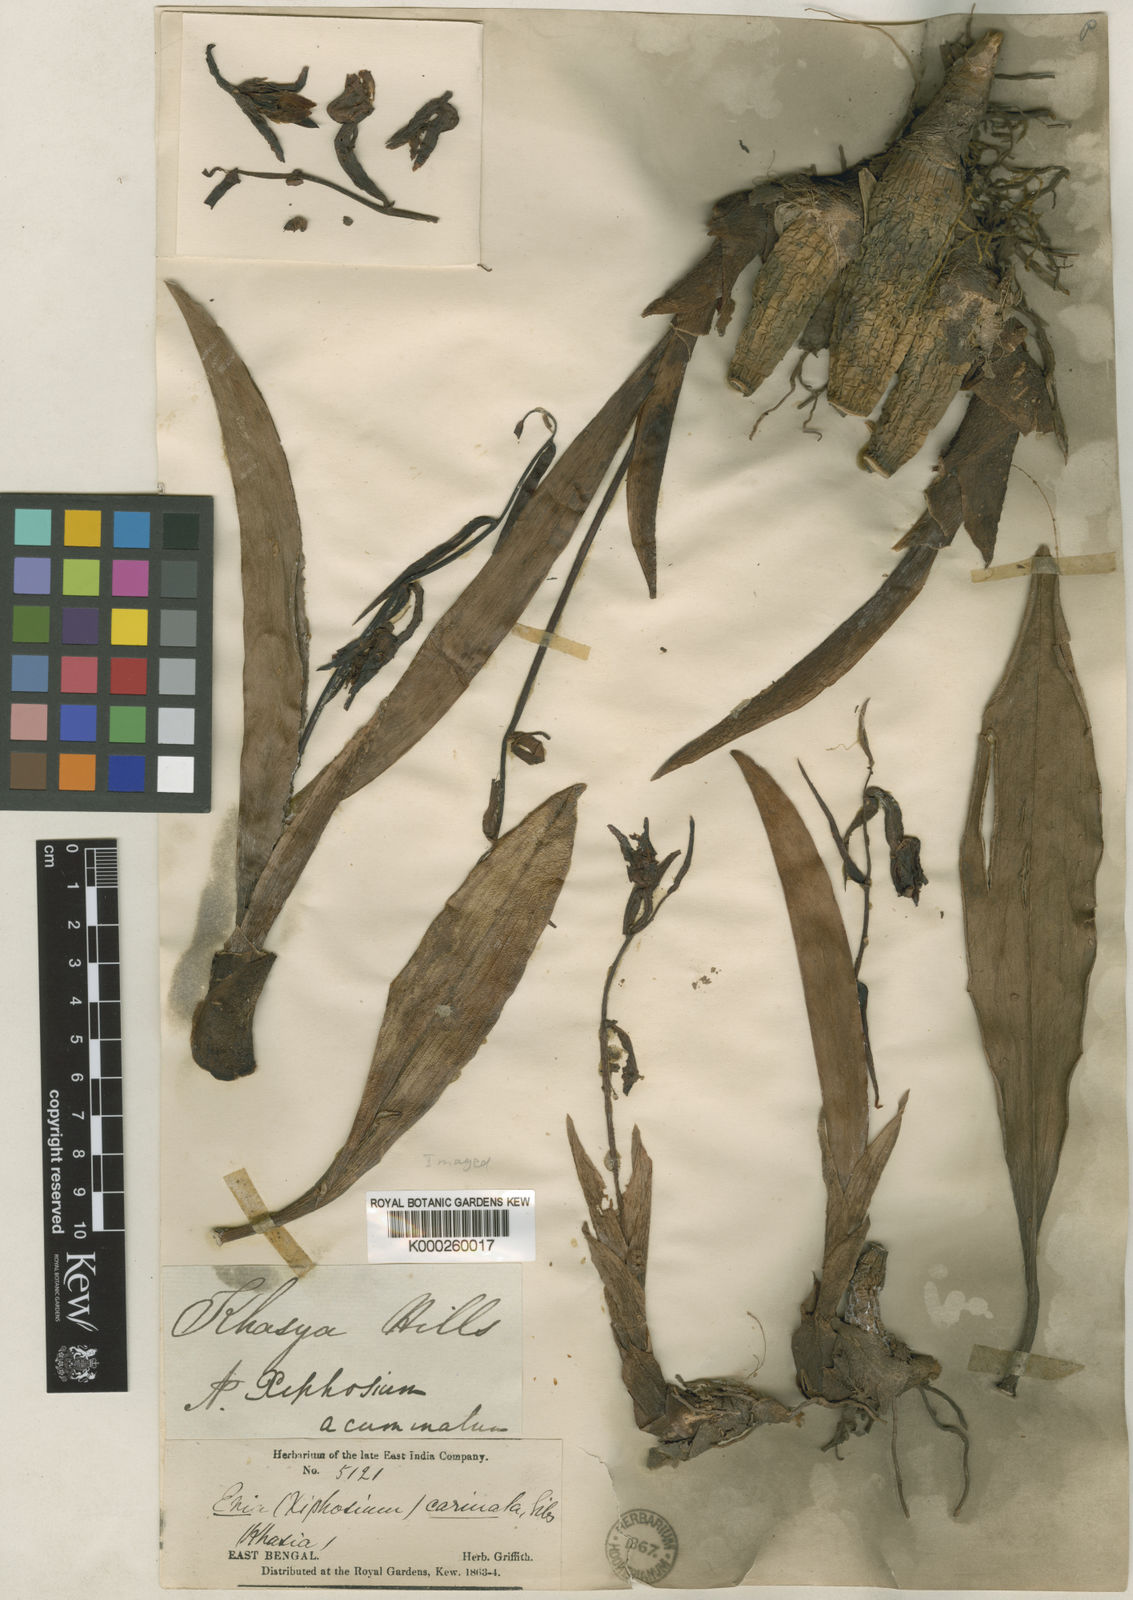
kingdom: Plantae
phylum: Tracheophyta
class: Liliopsida
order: Asparagales
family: Orchidaceae
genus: Cryptochilus
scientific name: Cryptochilus acuminatus
